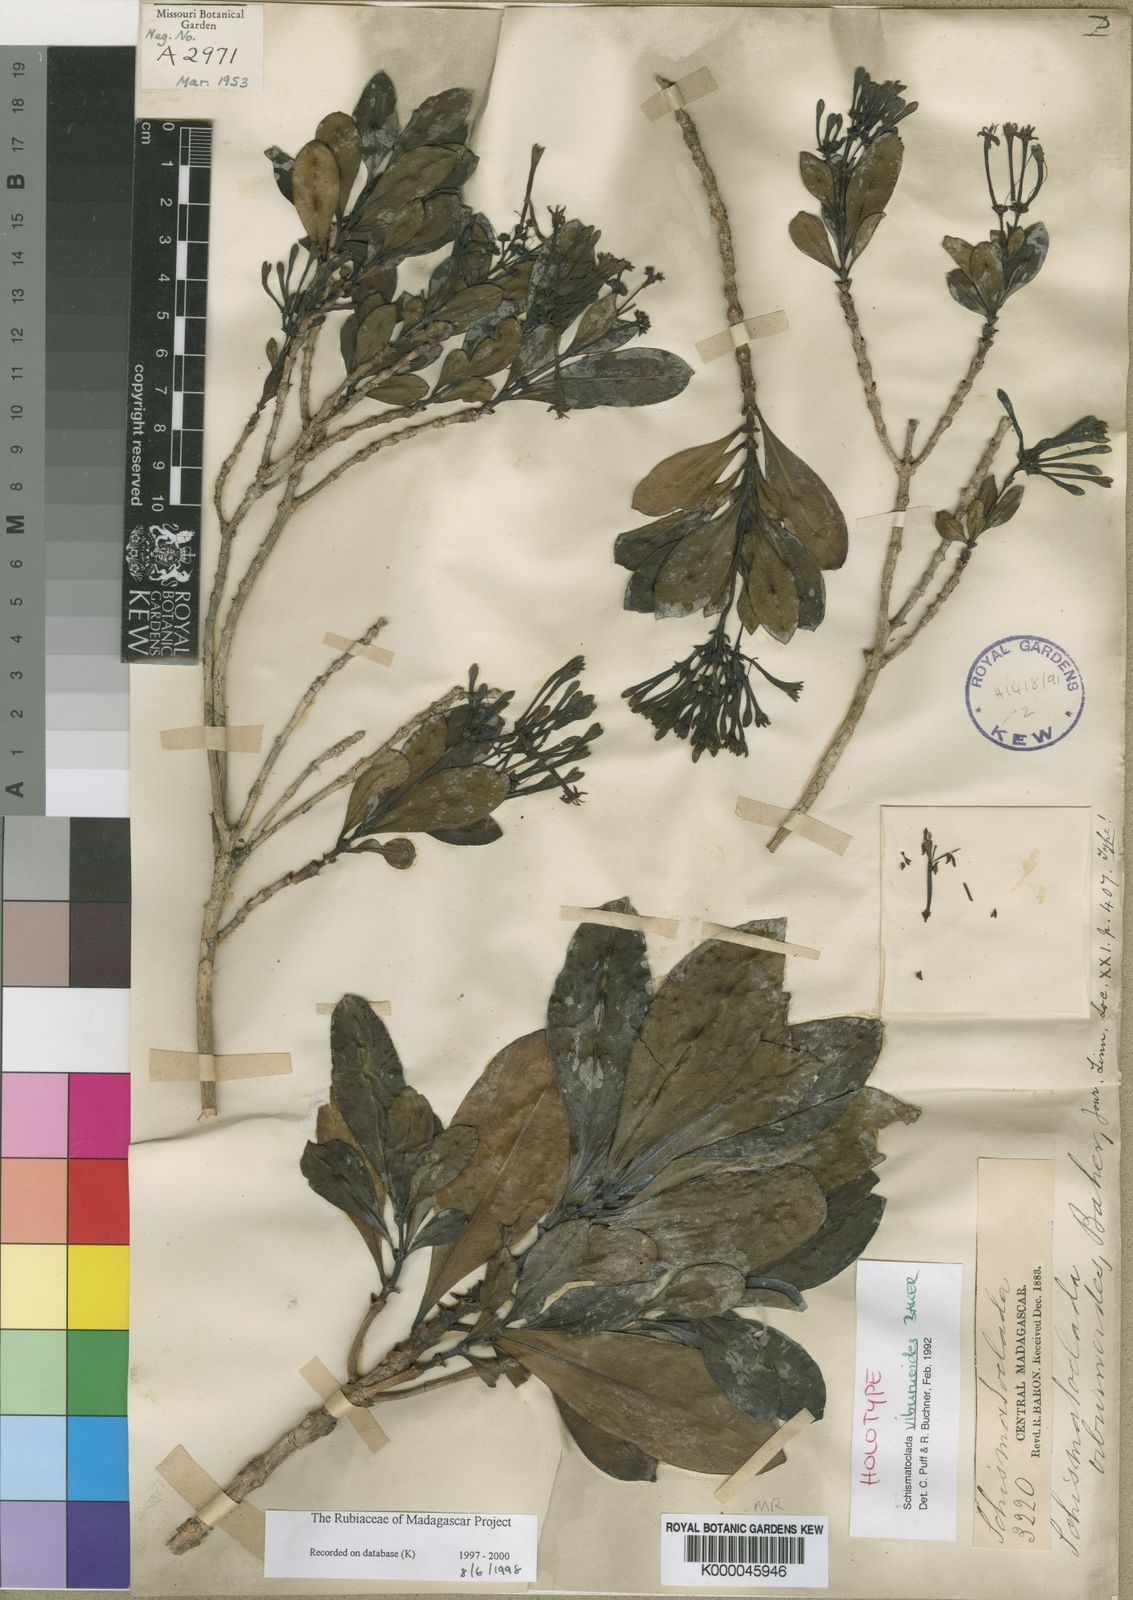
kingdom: Plantae
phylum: Tracheophyta
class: Magnoliopsida
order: Gentianales
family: Rubiaceae
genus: Schismatoclada
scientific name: Schismatoclada viburnoides
